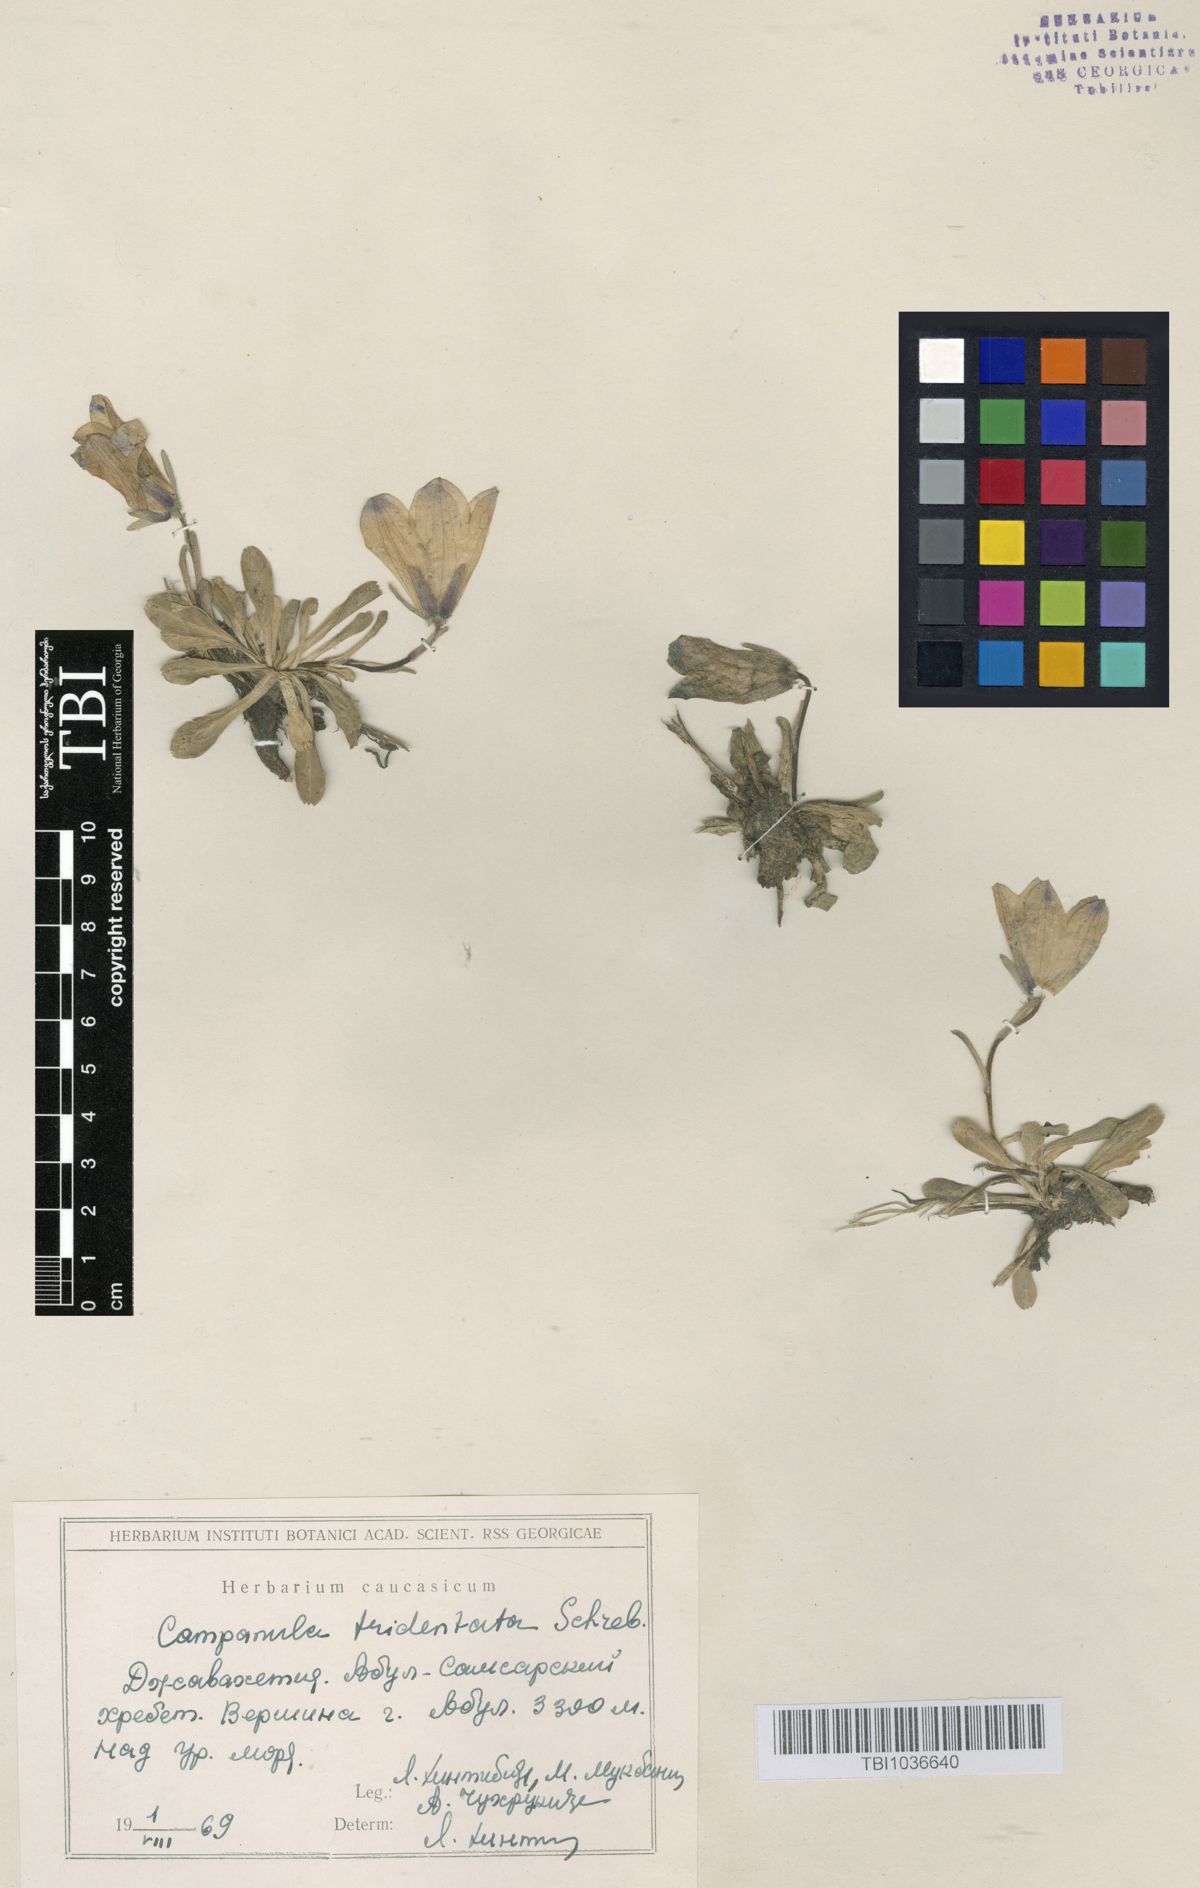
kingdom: Plantae
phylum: Tracheophyta
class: Magnoliopsida
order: Asterales
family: Campanulaceae
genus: Campanula
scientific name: Campanula tridentata
